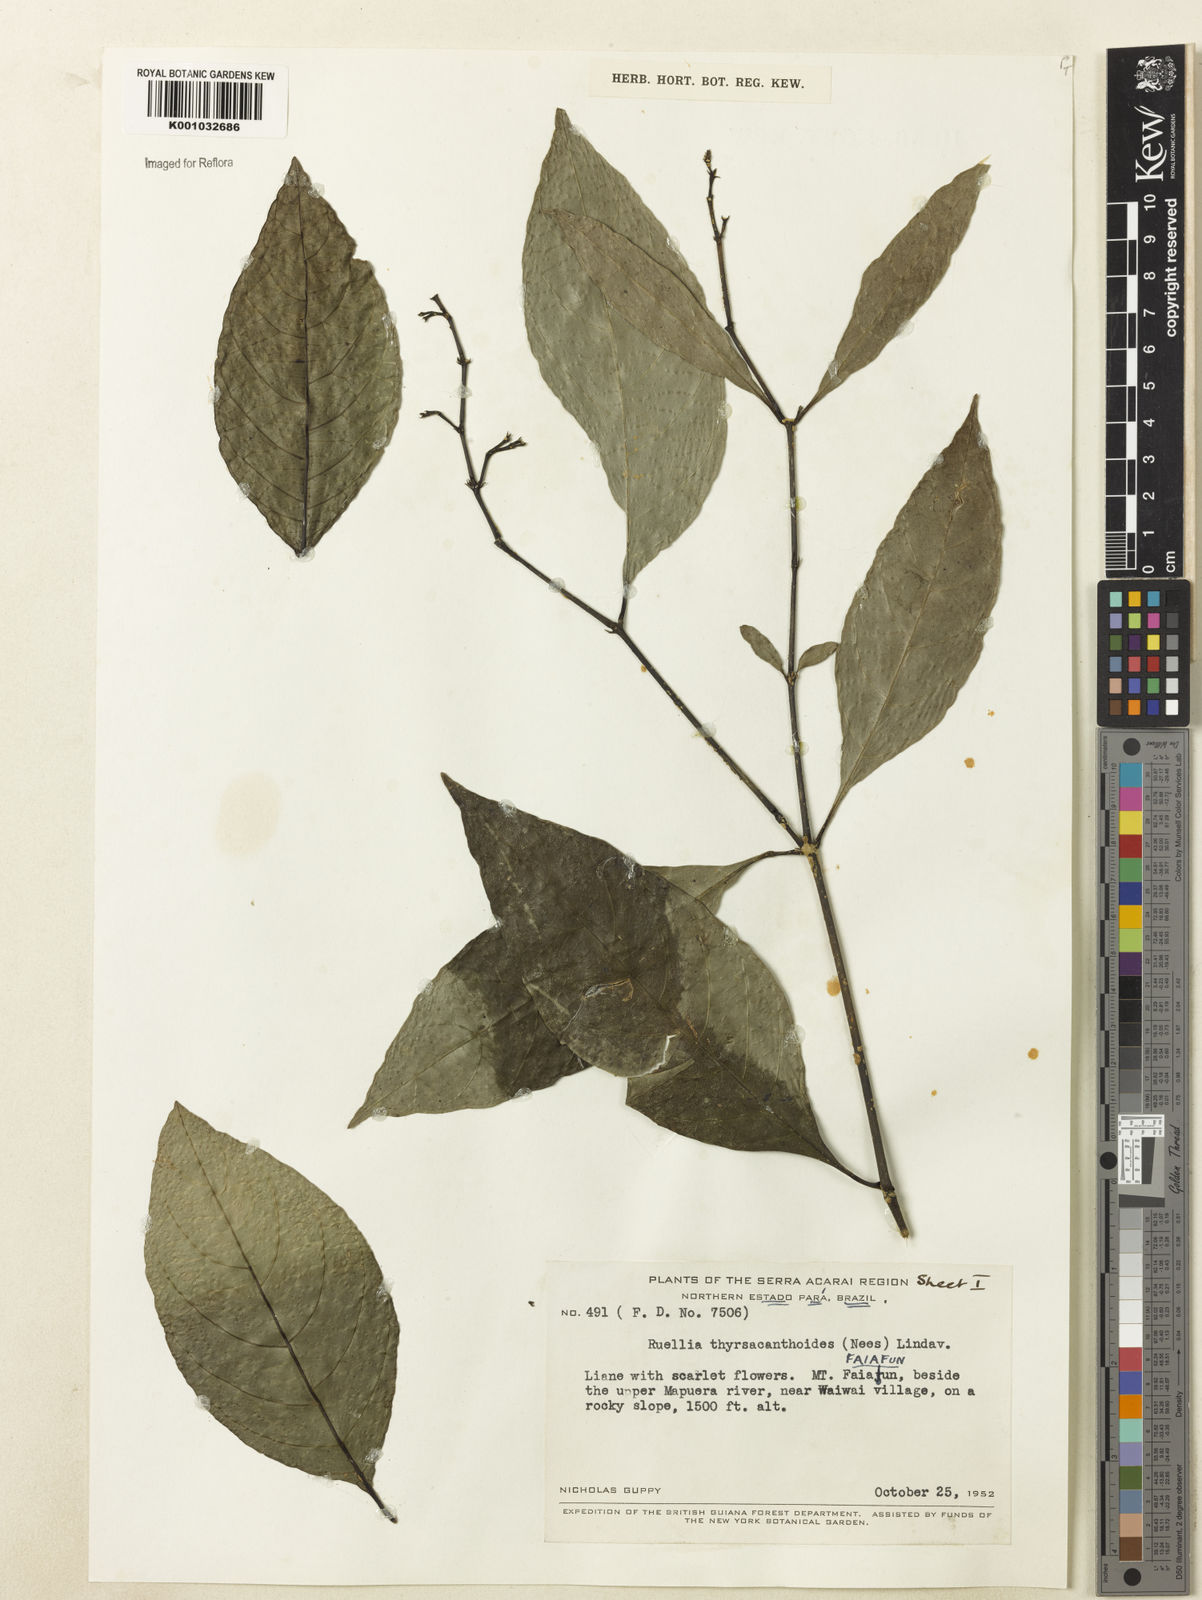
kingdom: Plantae
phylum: Tracheophyta
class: Magnoliopsida
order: Lamiales
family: Acanthaceae
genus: Ruellia
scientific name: Ruellia humboldtiana
